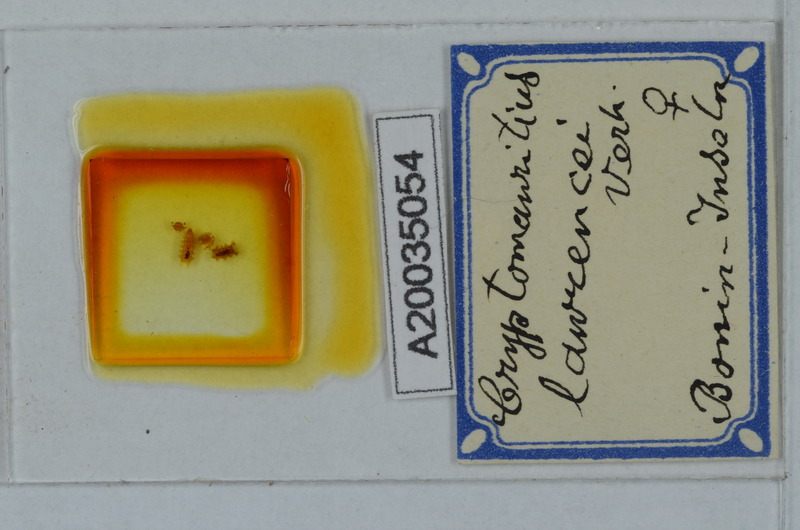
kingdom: Animalia
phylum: Arthropoda
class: Diplopoda
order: Polydesmida
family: Cryptodesmidae
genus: Cryptodesmus
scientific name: Cryptodesmus
